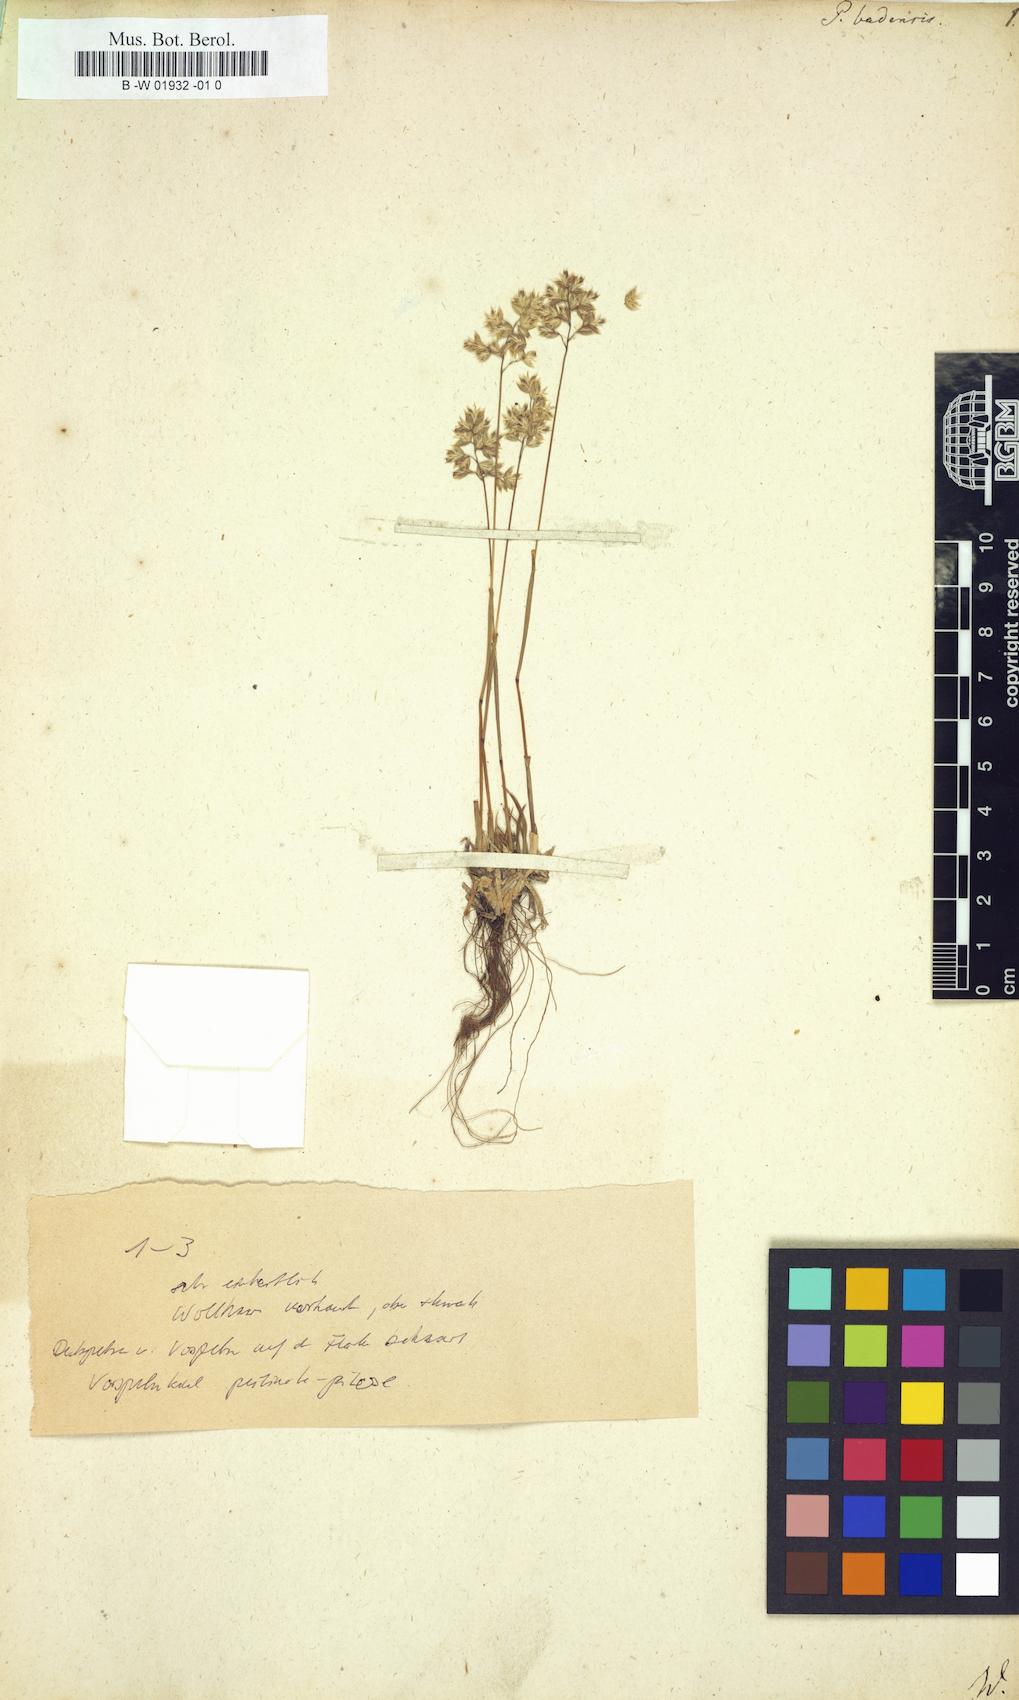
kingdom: Plantae
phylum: Tracheophyta
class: Liliopsida
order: Poales
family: Poaceae
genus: Poa
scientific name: Poa badensis
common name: Baden's bluegrass
